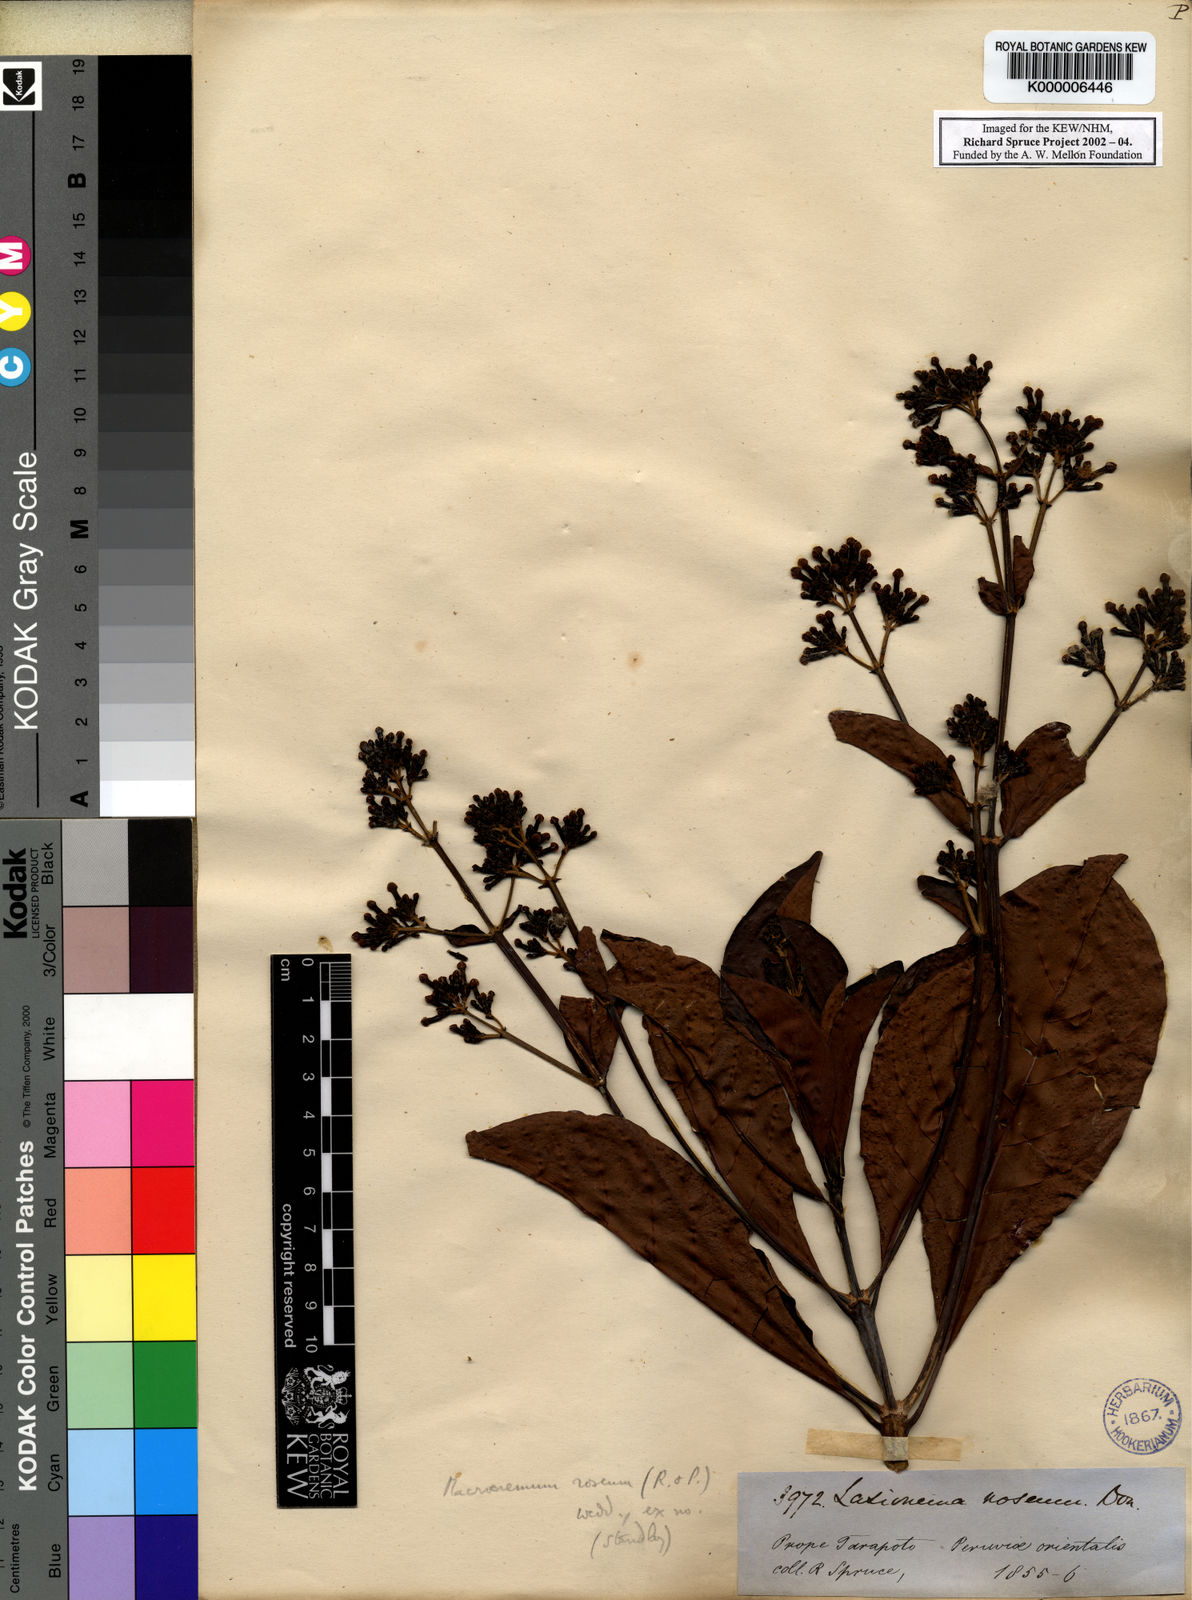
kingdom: Plantae
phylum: Tracheophyta
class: Magnoliopsida
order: Gentianales
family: Rubiaceae
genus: Macrocnemum
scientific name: Macrocnemum roseum
